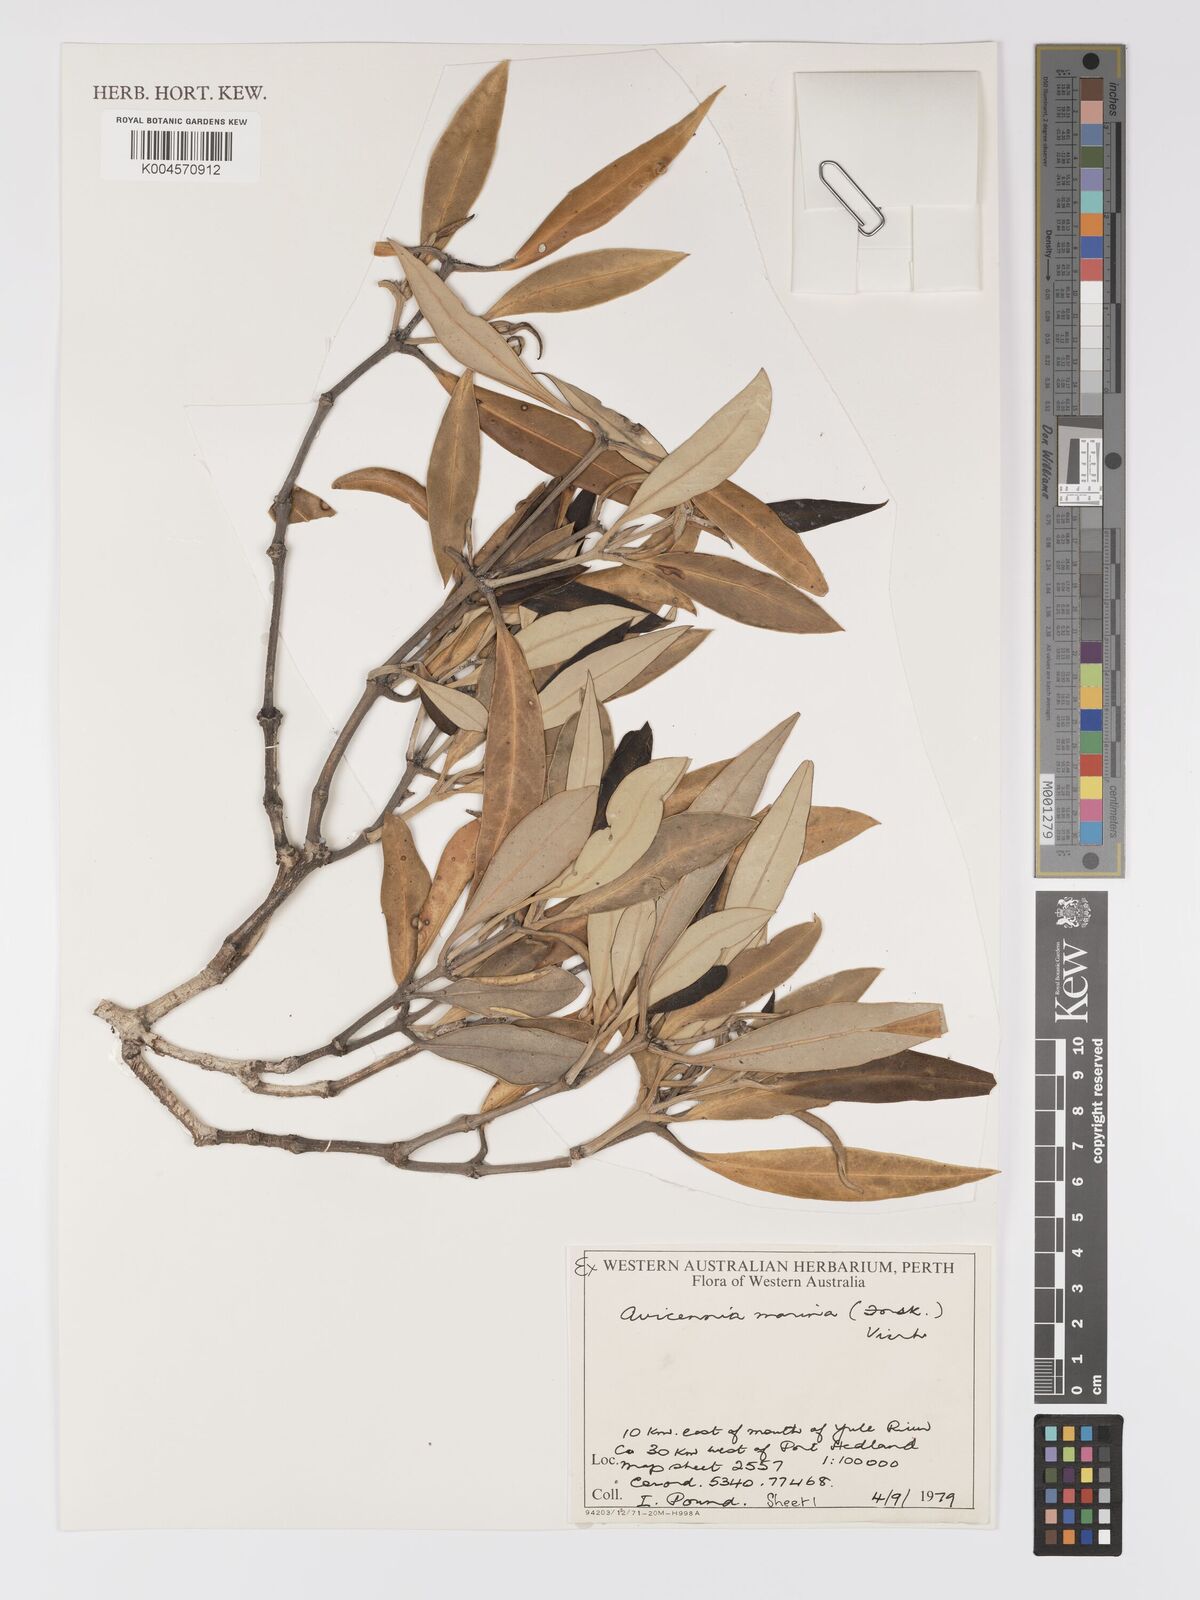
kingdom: Plantae
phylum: Tracheophyta
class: Magnoliopsida
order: Lamiales
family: Acanthaceae
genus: Avicennia
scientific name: Avicennia marina
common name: Gray mangrove
